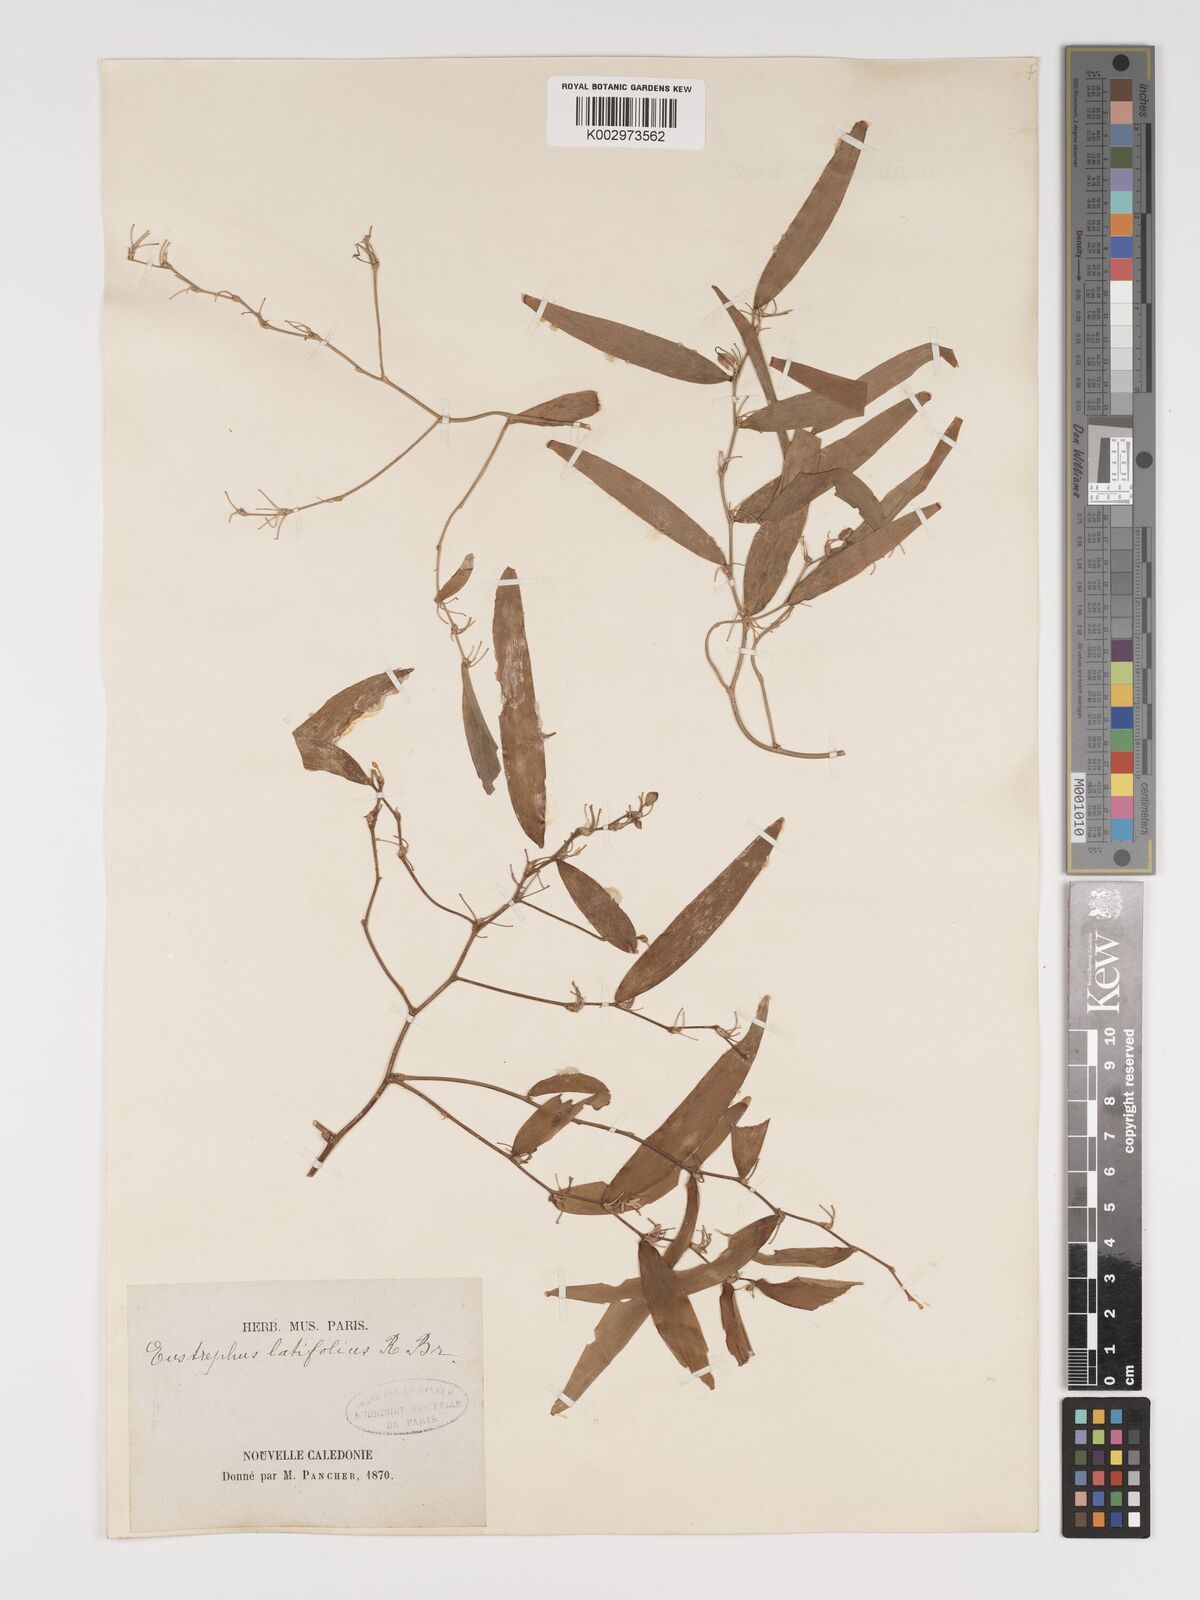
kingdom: Plantae
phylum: Tracheophyta
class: Liliopsida
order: Asparagales
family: Asparagaceae
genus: Eustrephus
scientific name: Eustrephus latifolius
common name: Orangevine
